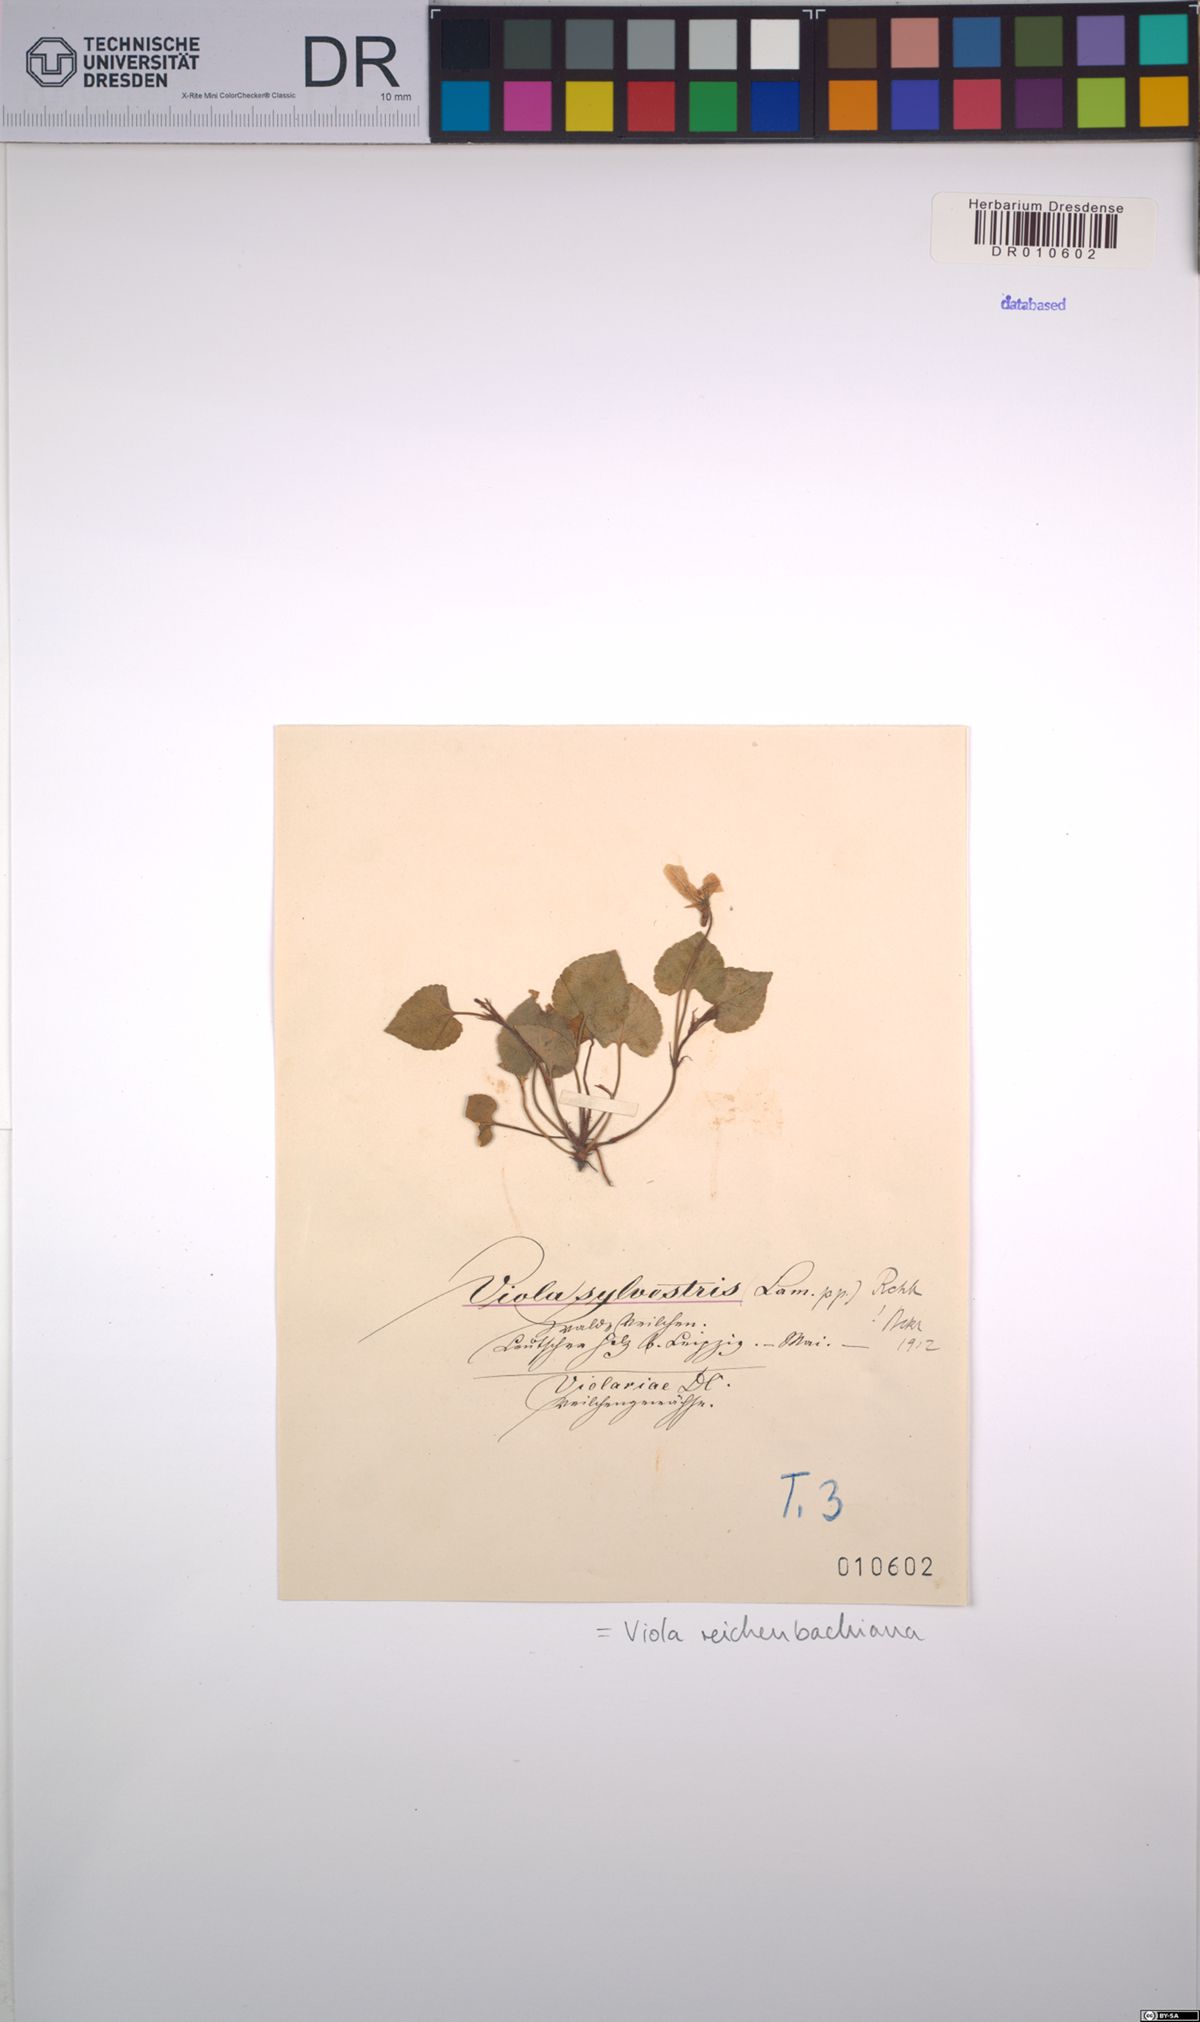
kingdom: Plantae
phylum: Tracheophyta
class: Magnoliopsida
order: Malpighiales
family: Violaceae
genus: Viola
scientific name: Viola reichenbachiana
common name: Early dog-violet
